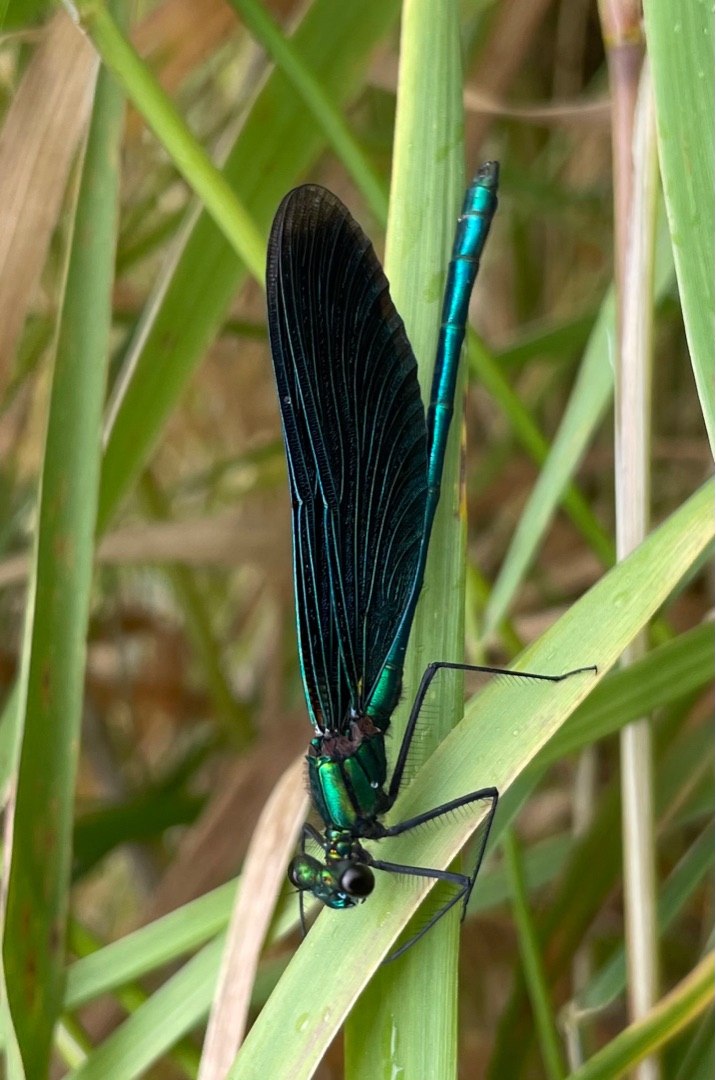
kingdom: Animalia
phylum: Arthropoda
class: Insecta
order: Odonata
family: Calopterygidae
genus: Calopteryx
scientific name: Calopteryx virgo
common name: Blåvinget pragtvandnymfe
